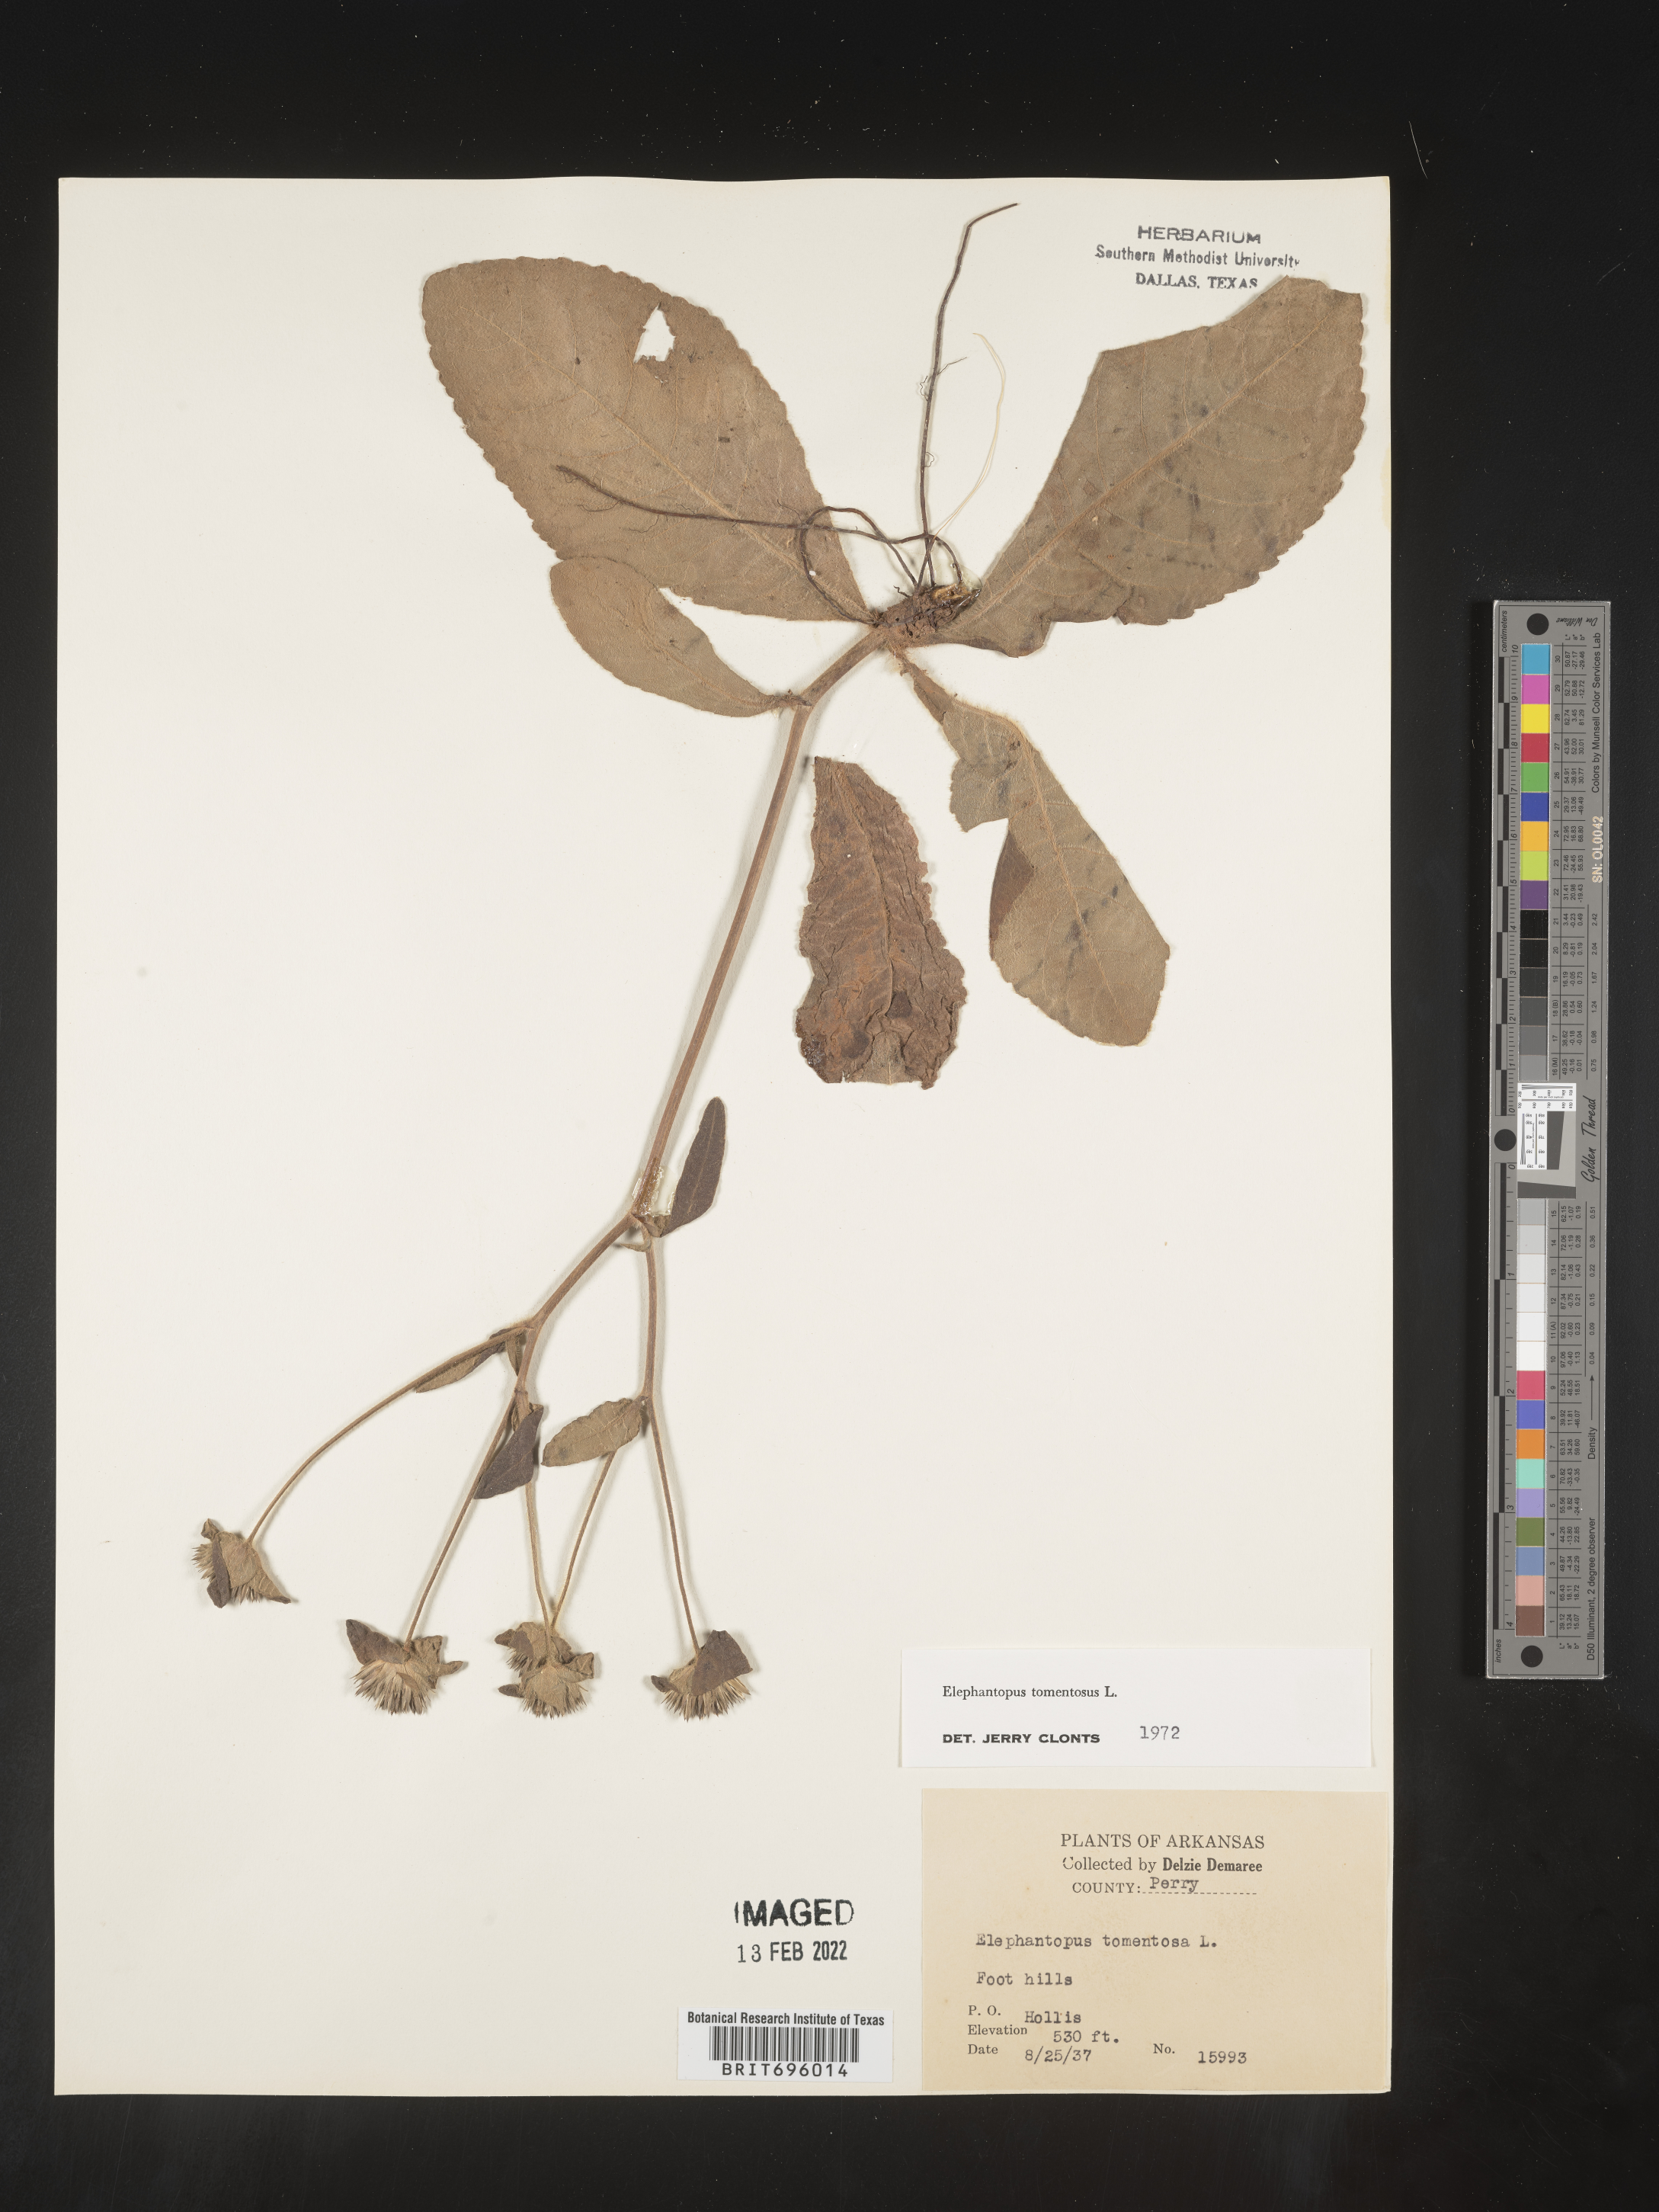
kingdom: Plantae
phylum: Tracheophyta
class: Magnoliopsida
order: Asterales
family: Asteraceae
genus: Elephantopus
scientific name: Elephantopus tomentosus
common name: Tobacco-weed
